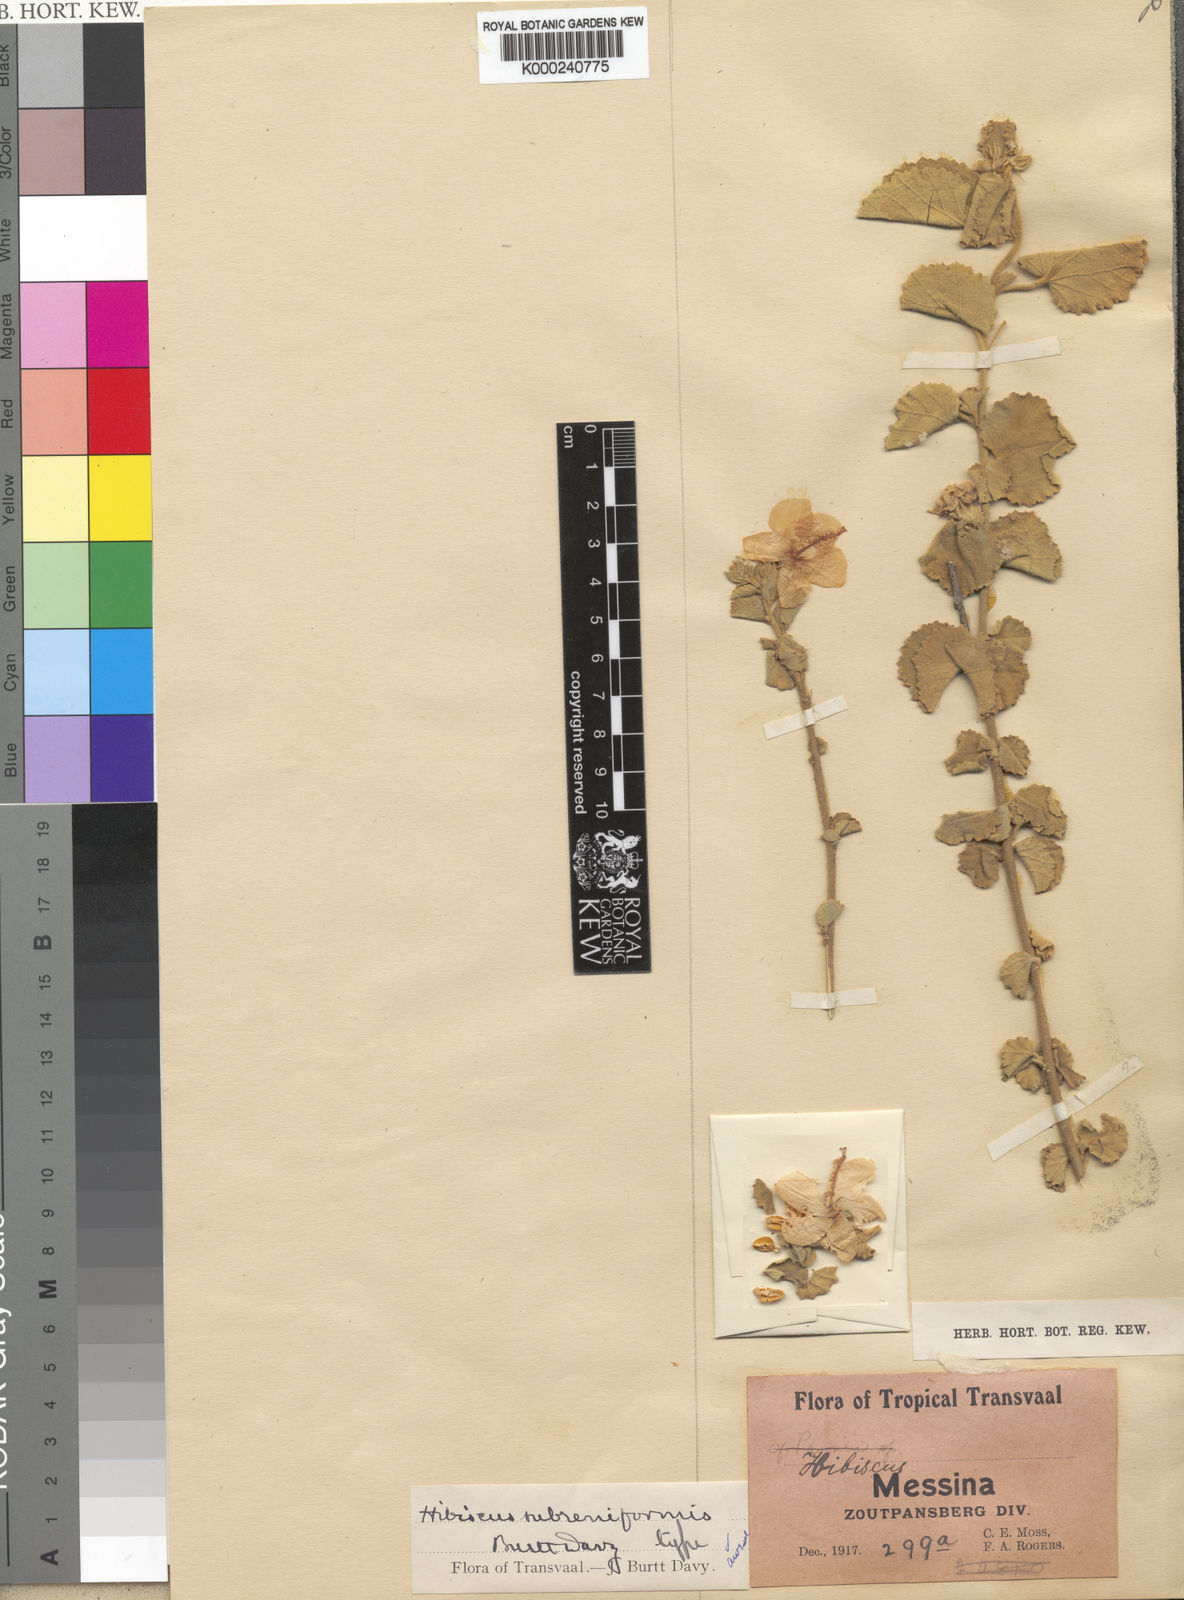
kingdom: Plantae
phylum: Tracheophyta
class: Magnoliopsida
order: Malvales
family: Malvaceae
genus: Hibiscus
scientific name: Hibiscus subreniformis
